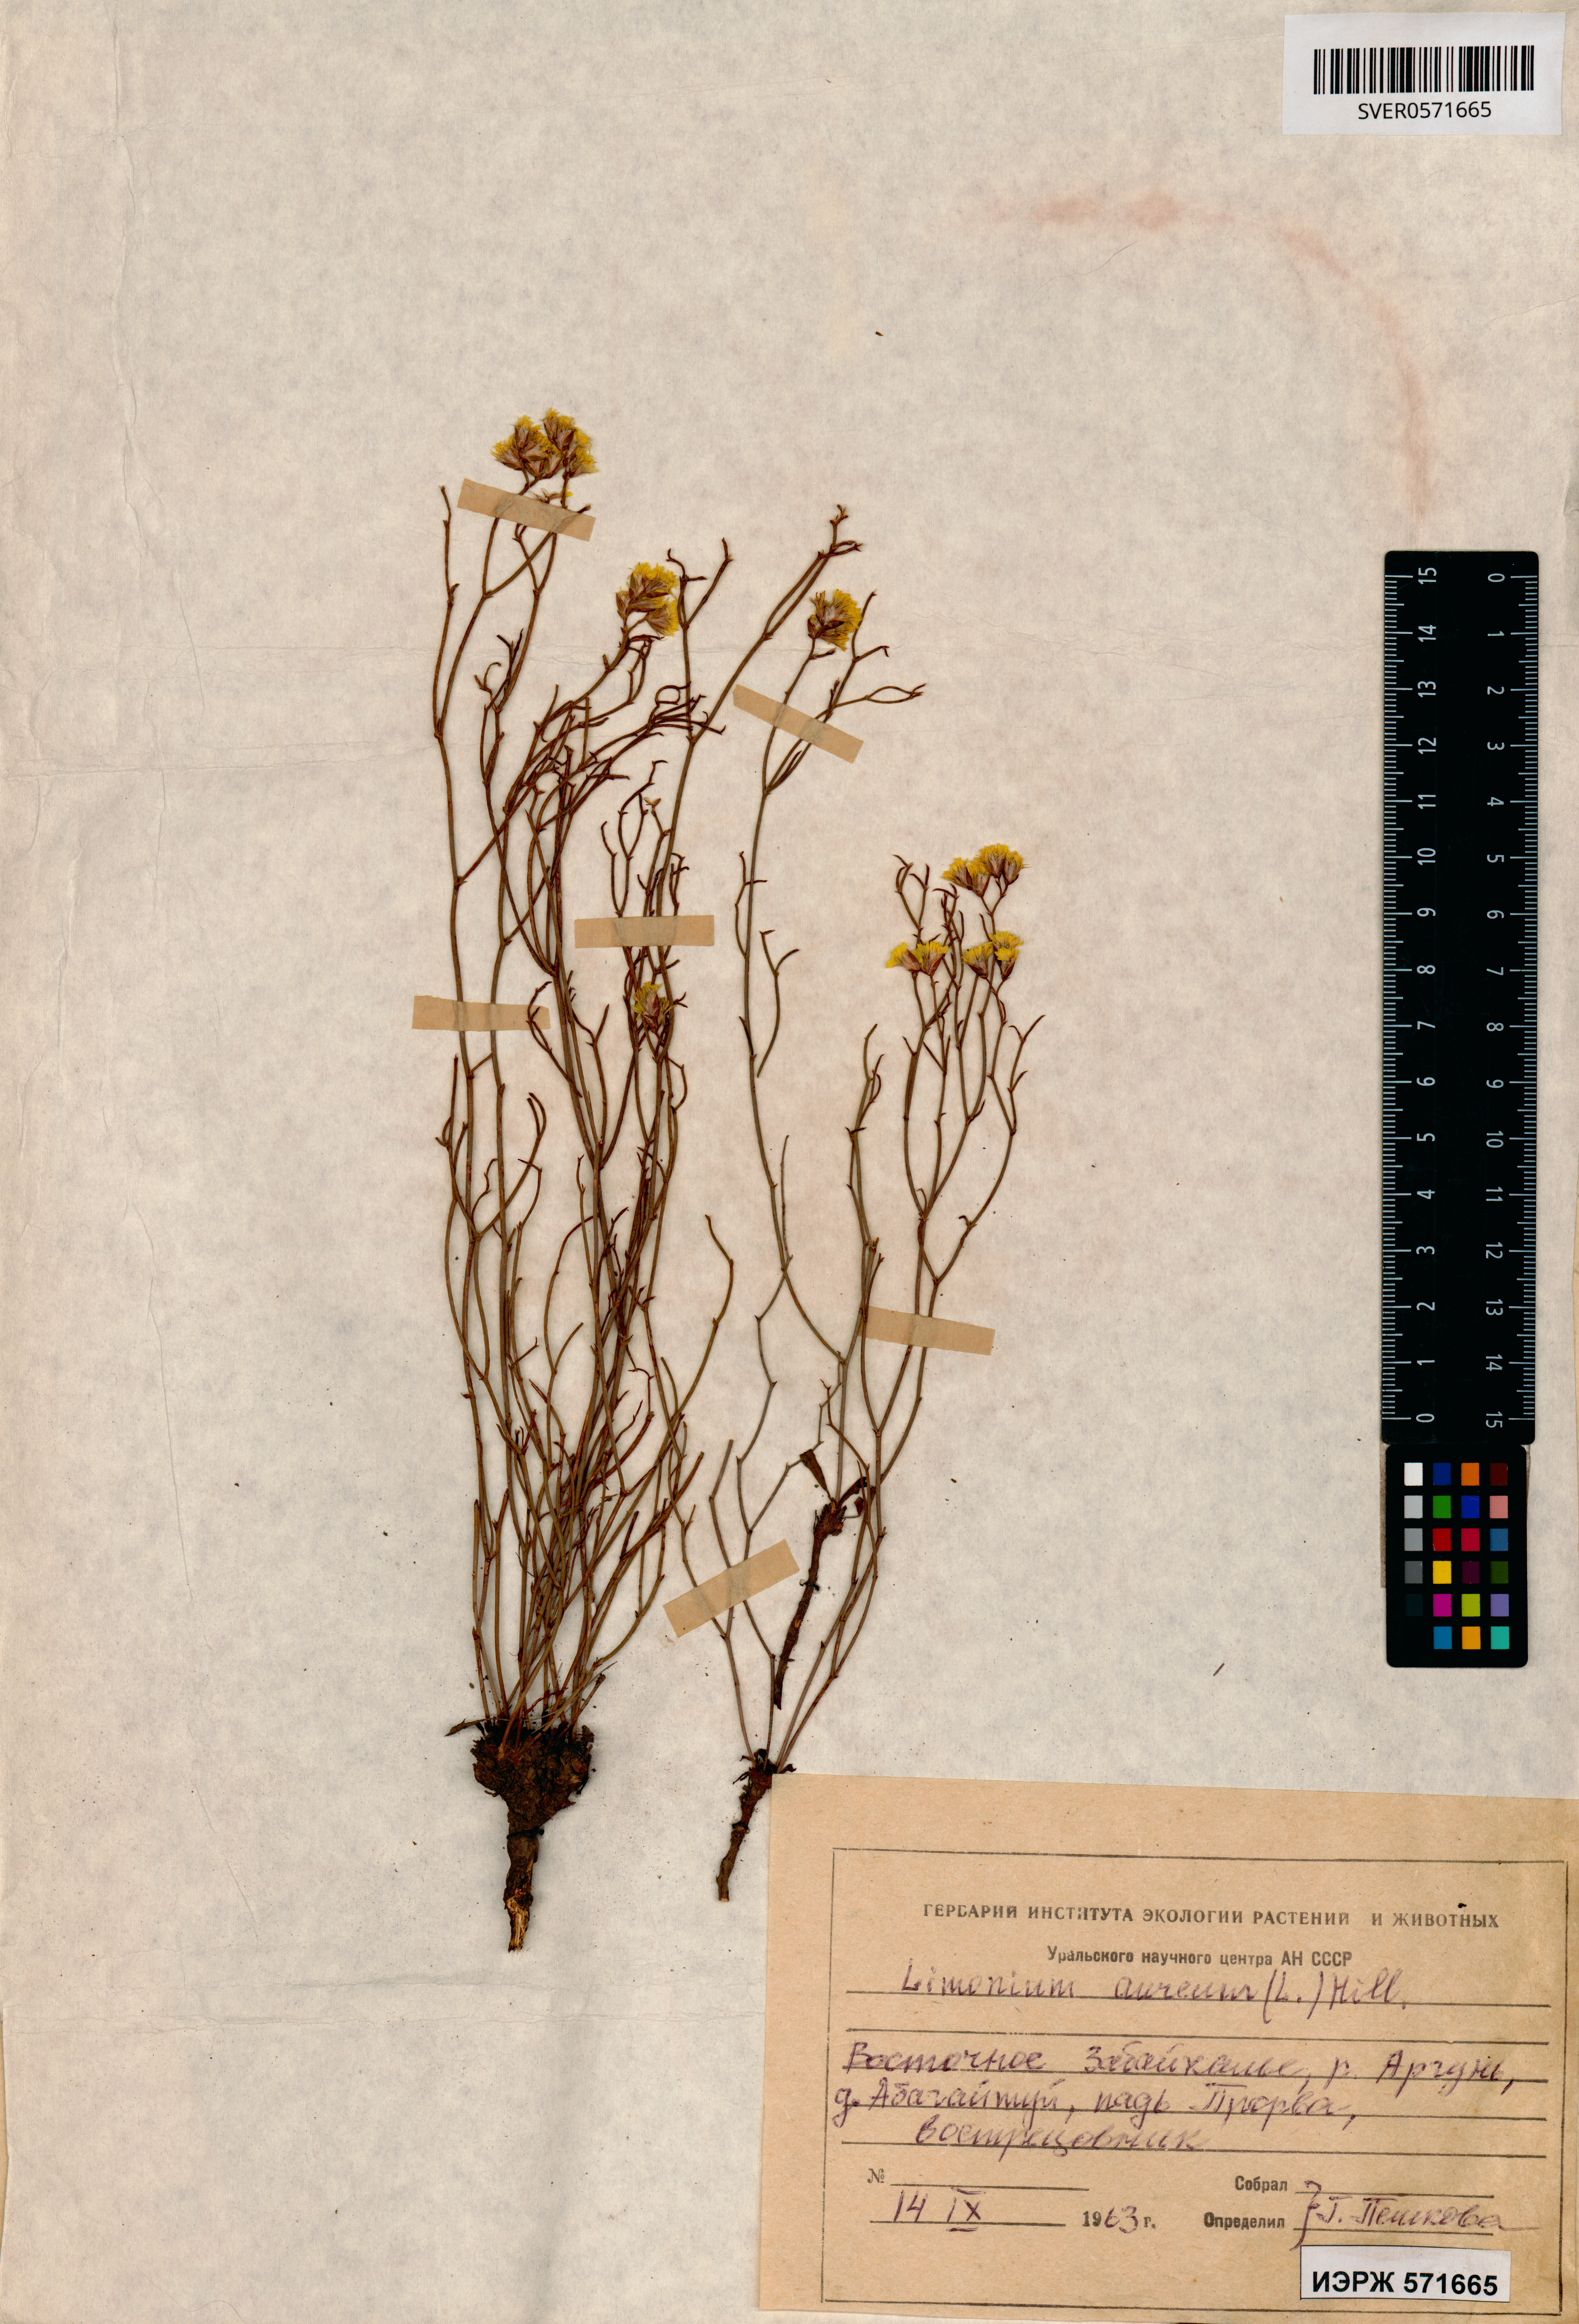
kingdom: Plantae
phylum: Tracheophyta
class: Magnoliopsida
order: Caryophyllales
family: Plumbaginaceae
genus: Limonium
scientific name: Limonium aureum
